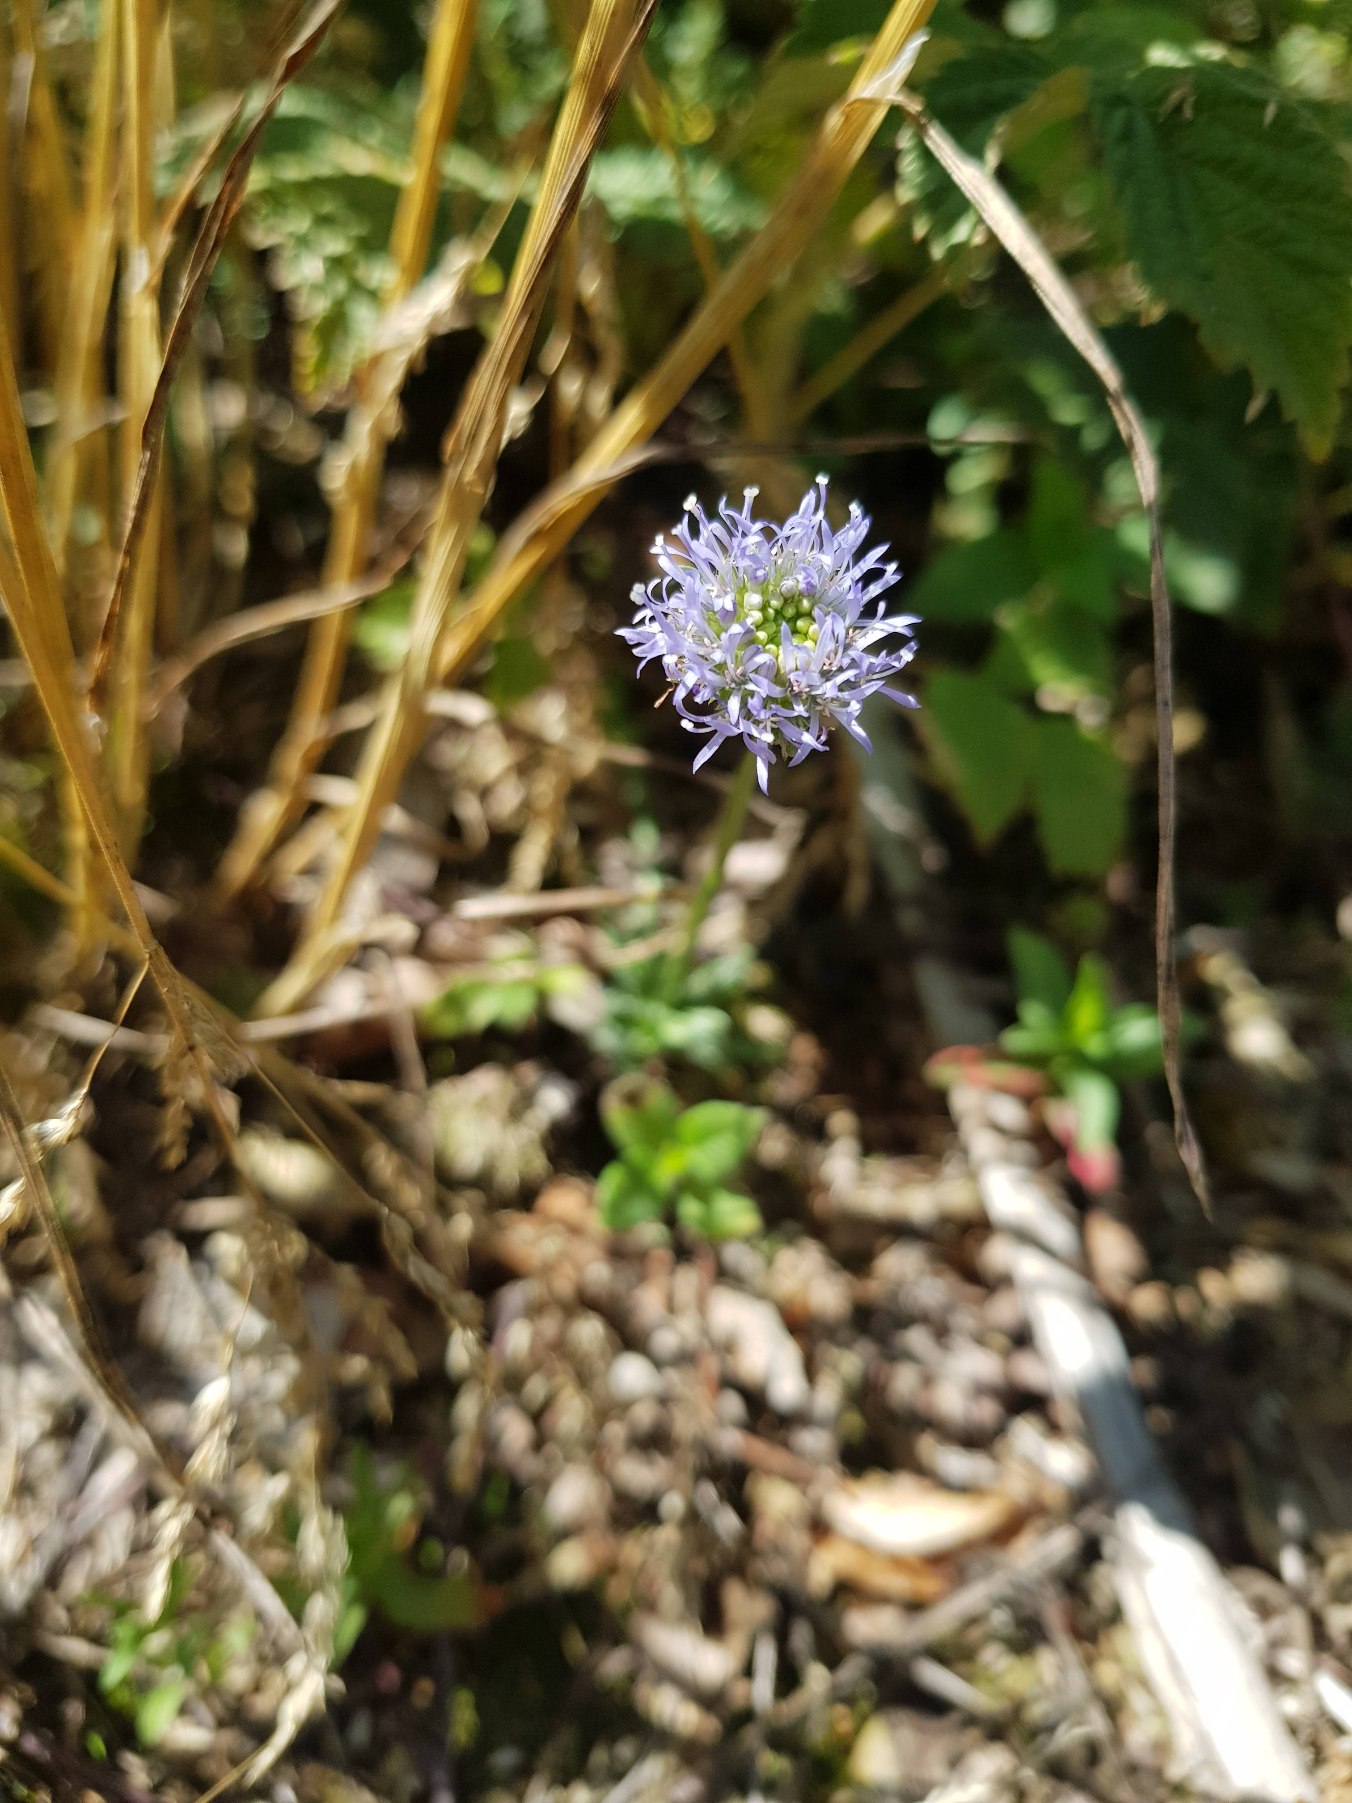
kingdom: Plantae
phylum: Tracheophyta
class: Magnoliopsida
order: Asterales
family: Campanulaceae
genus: Jasione
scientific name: Jasione montana
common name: Blåmunke
